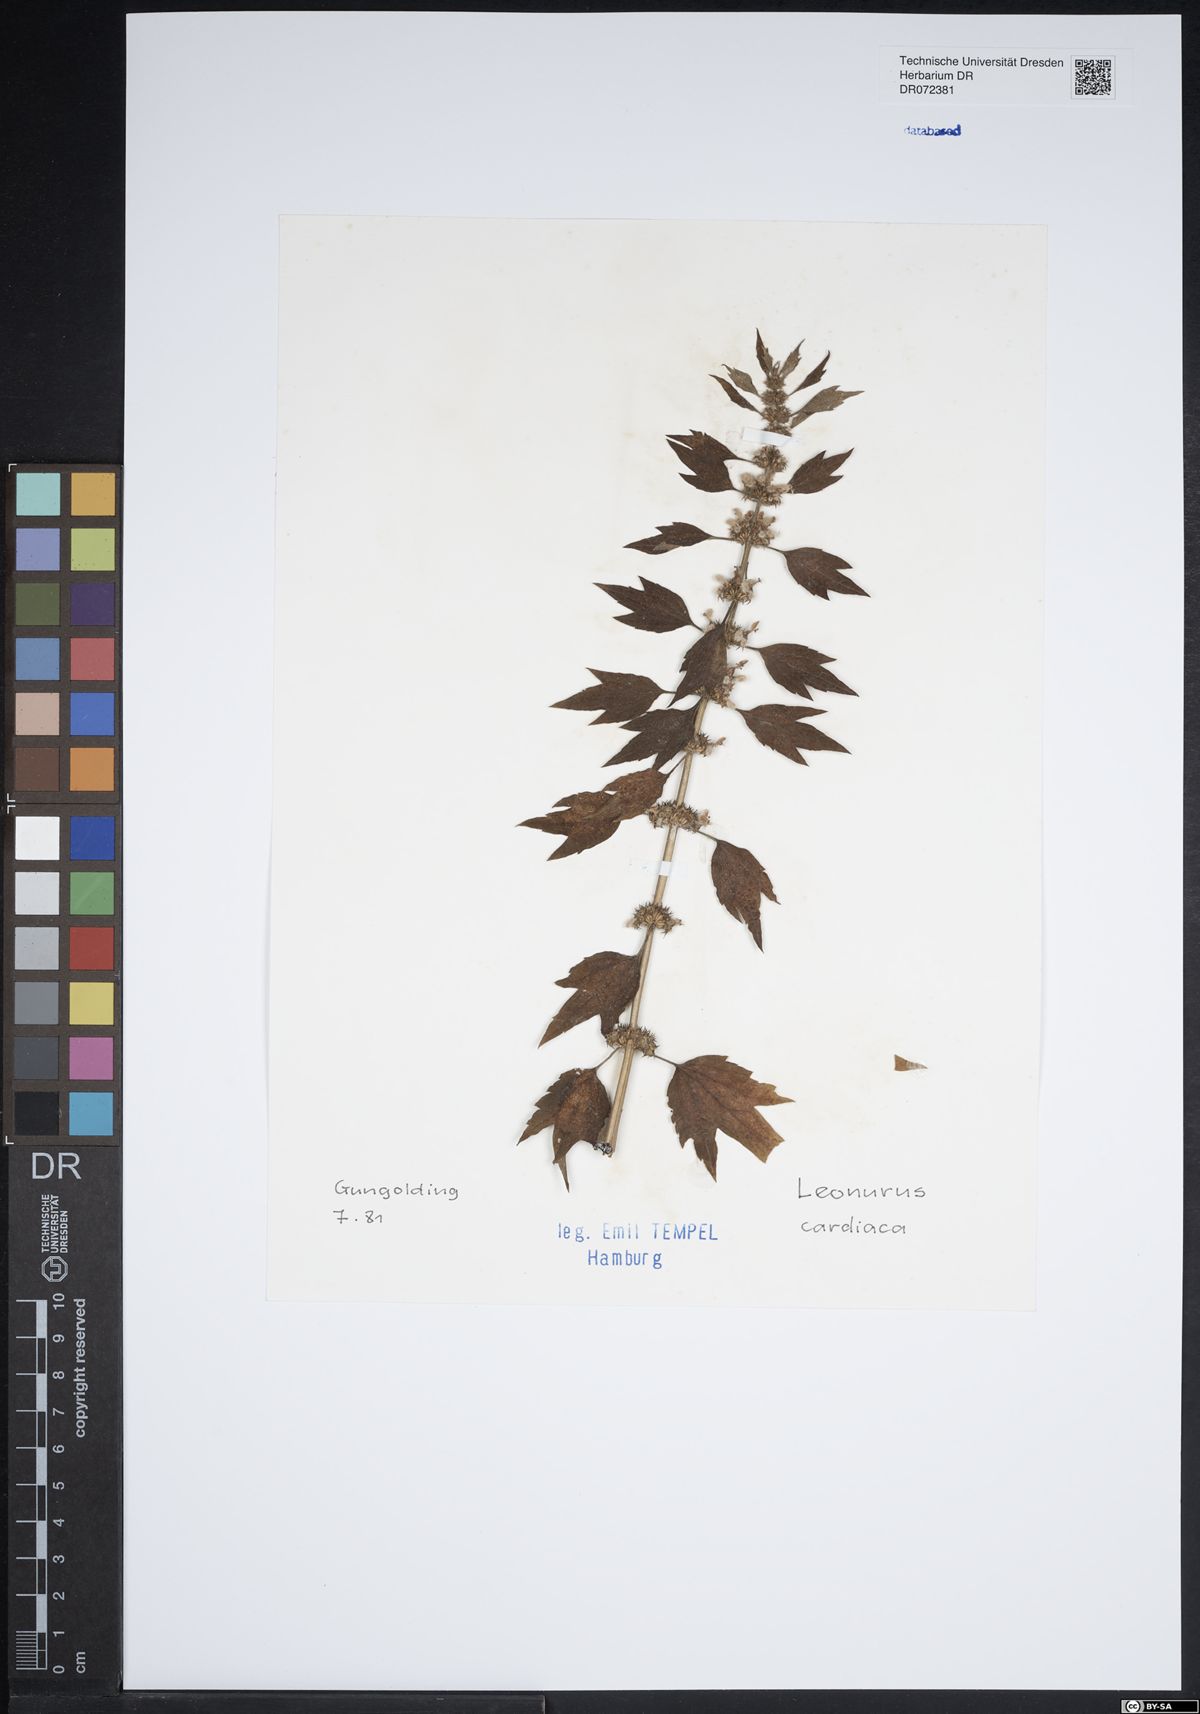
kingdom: Plantae
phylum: Tracheophyta
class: Magnoliopsida
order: Lamiales
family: Lamiaceae
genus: Leonurus
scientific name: Leonurus cardiaca
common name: Motherwort
